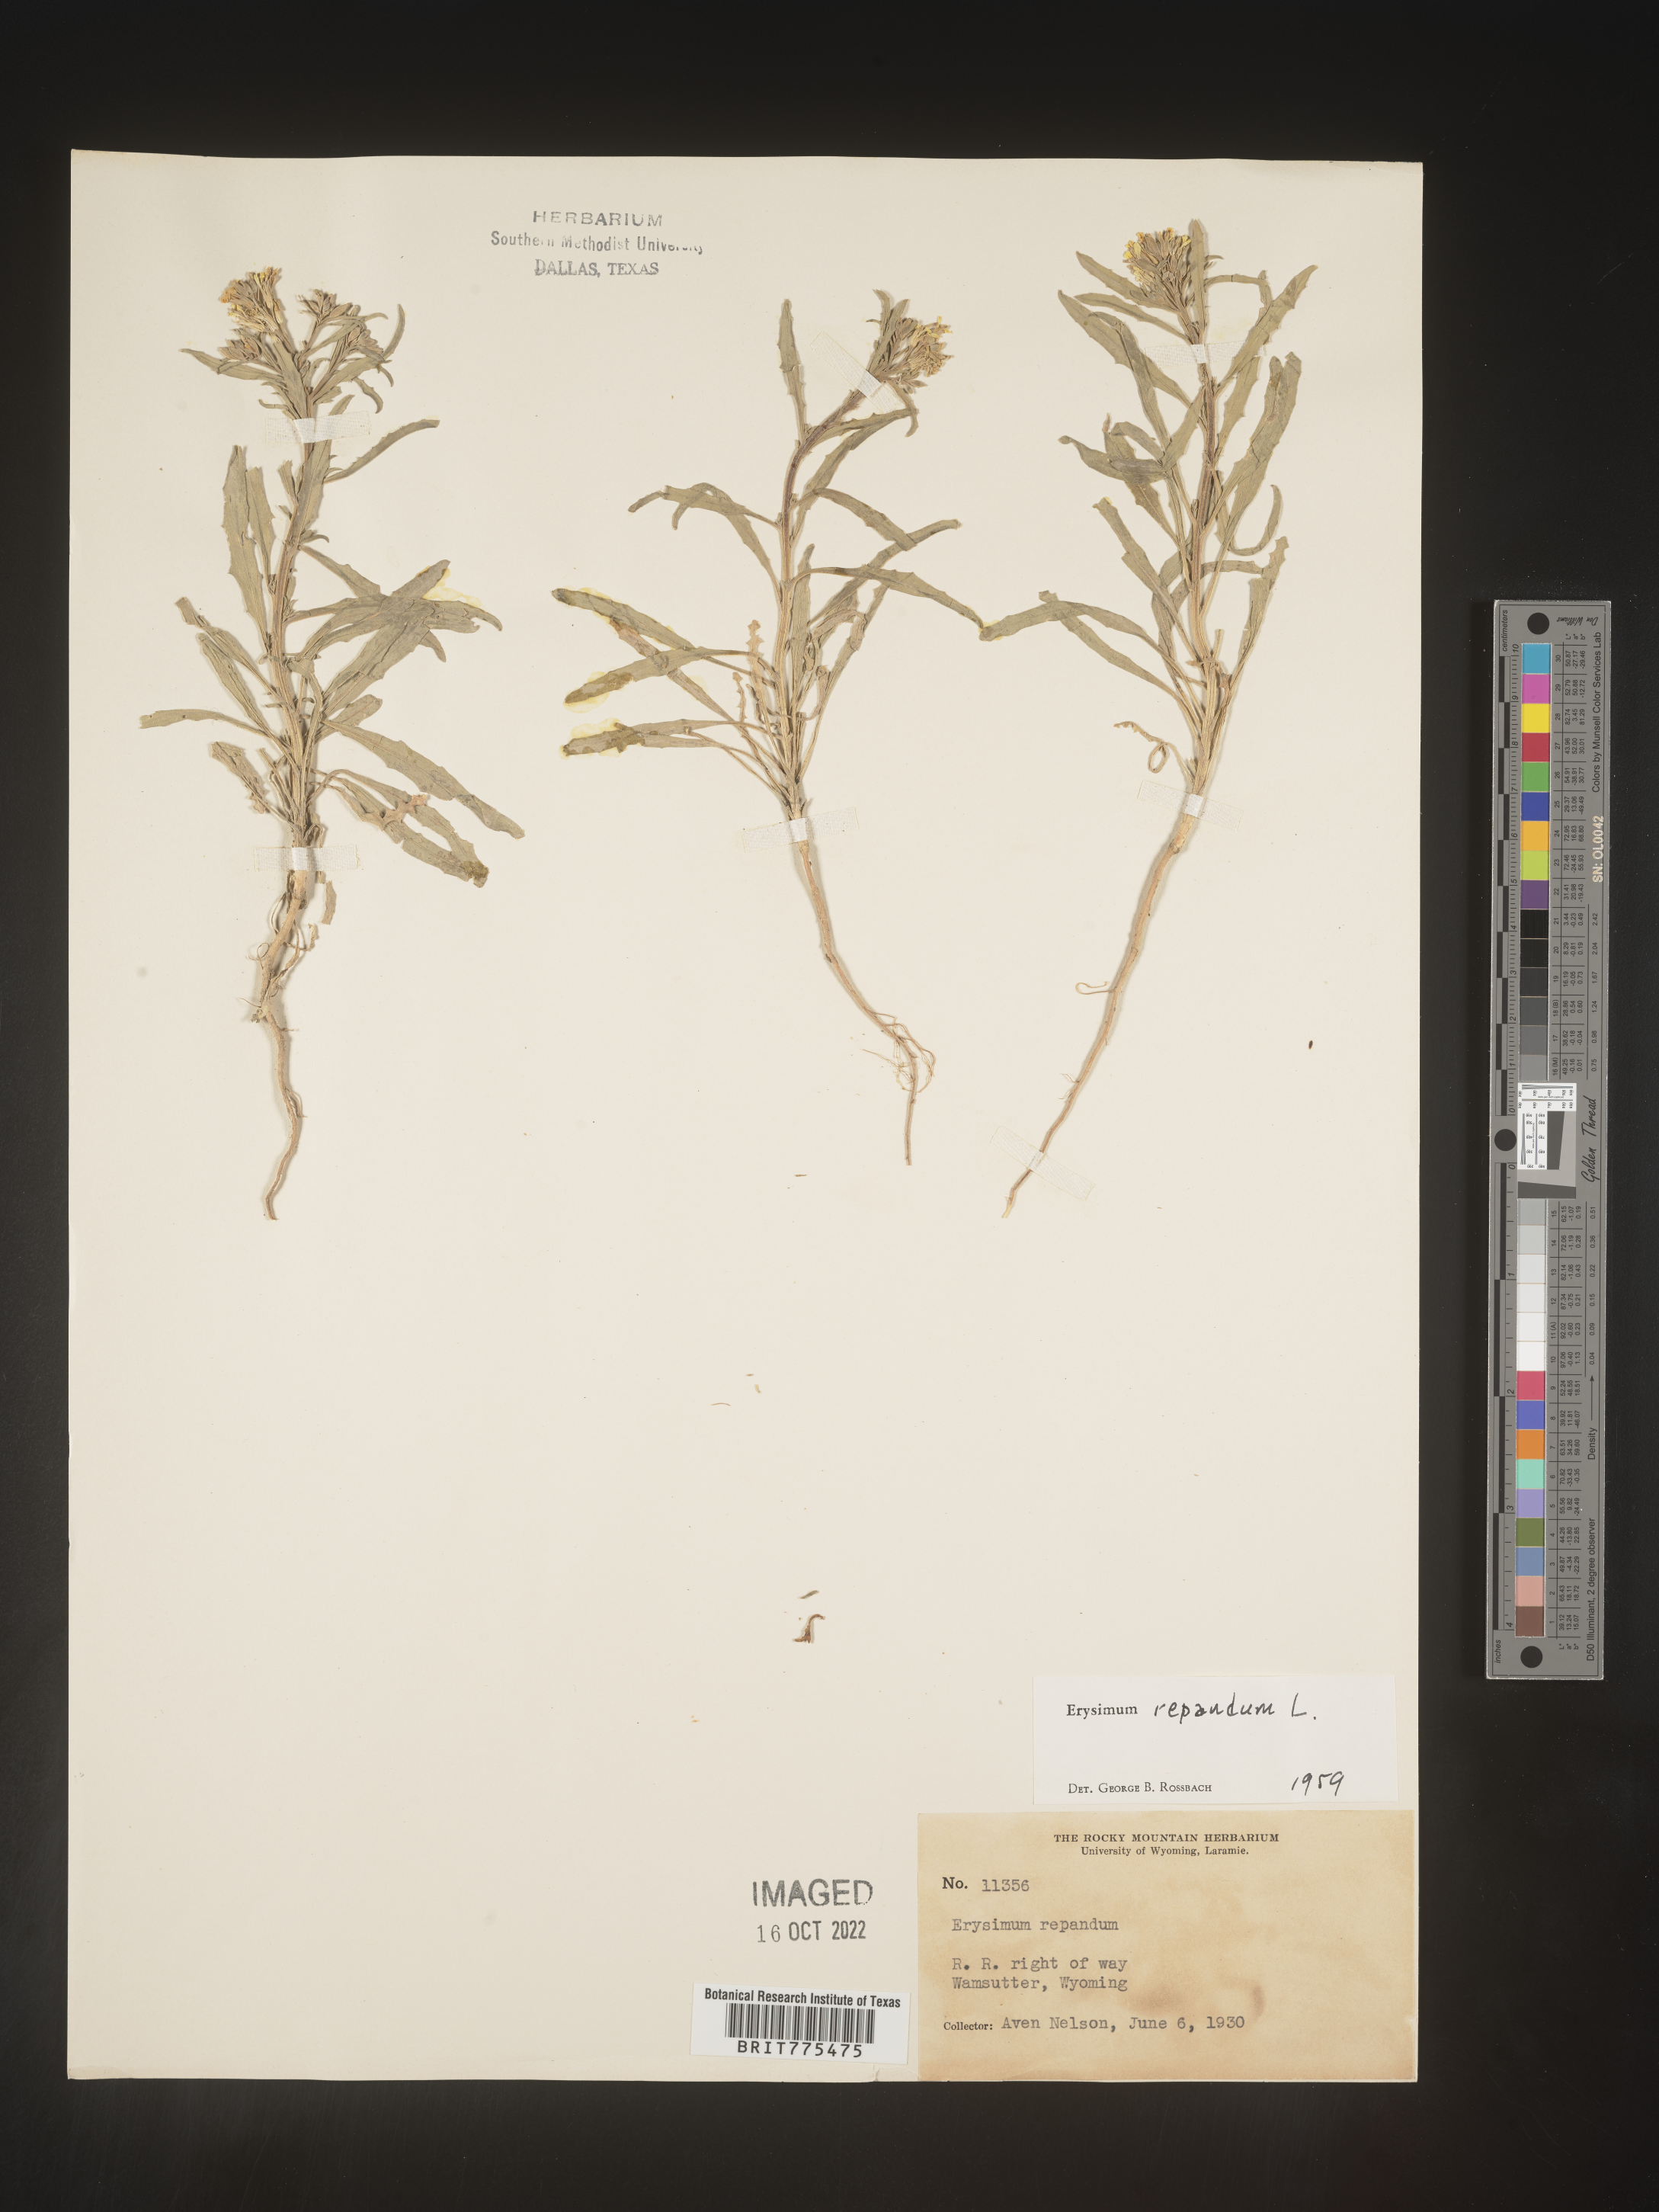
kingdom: Plantae
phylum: Tracheophyta
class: Magnoliopsida
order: Brassicales
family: Brassicaceae
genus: Erysimum
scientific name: Erysimum repandum
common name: Spreading wallflower
